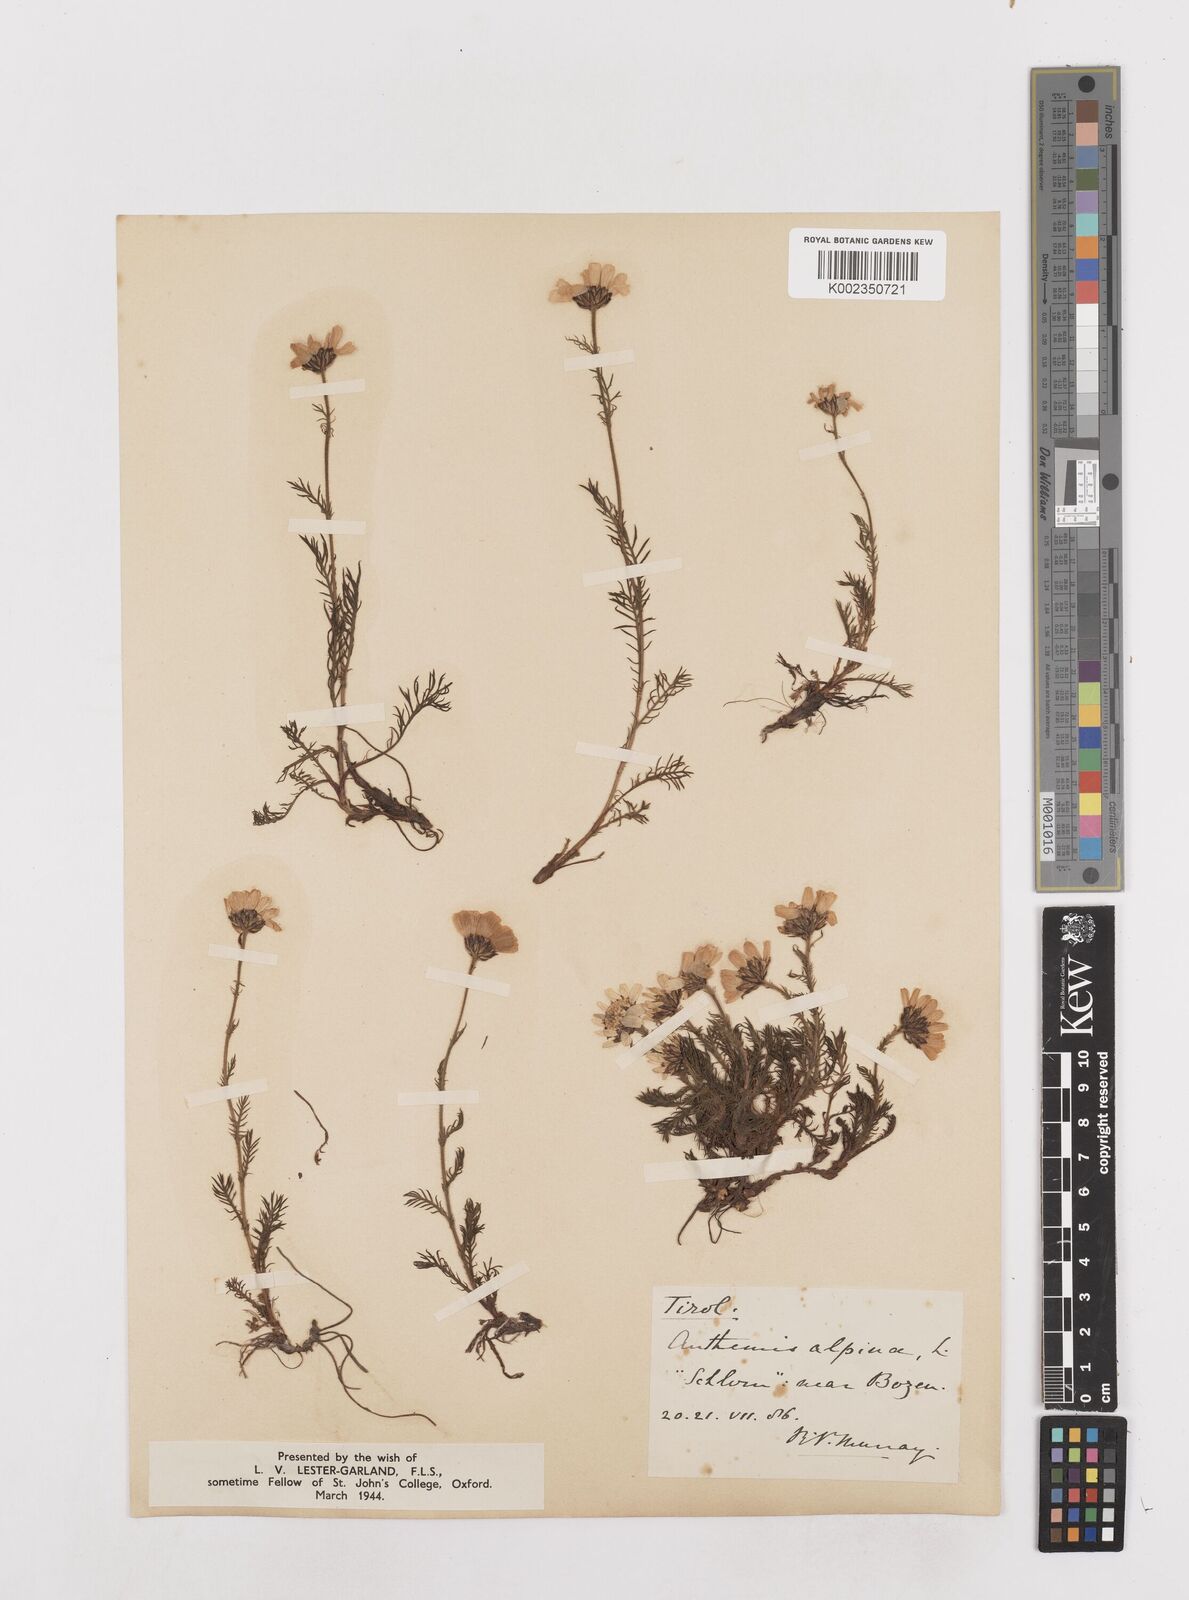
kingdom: Plantae
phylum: Tracheophyta
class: Magnoliopsida
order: Asterales
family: Asteraceae
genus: Achillea
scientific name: Achillea impatiens
